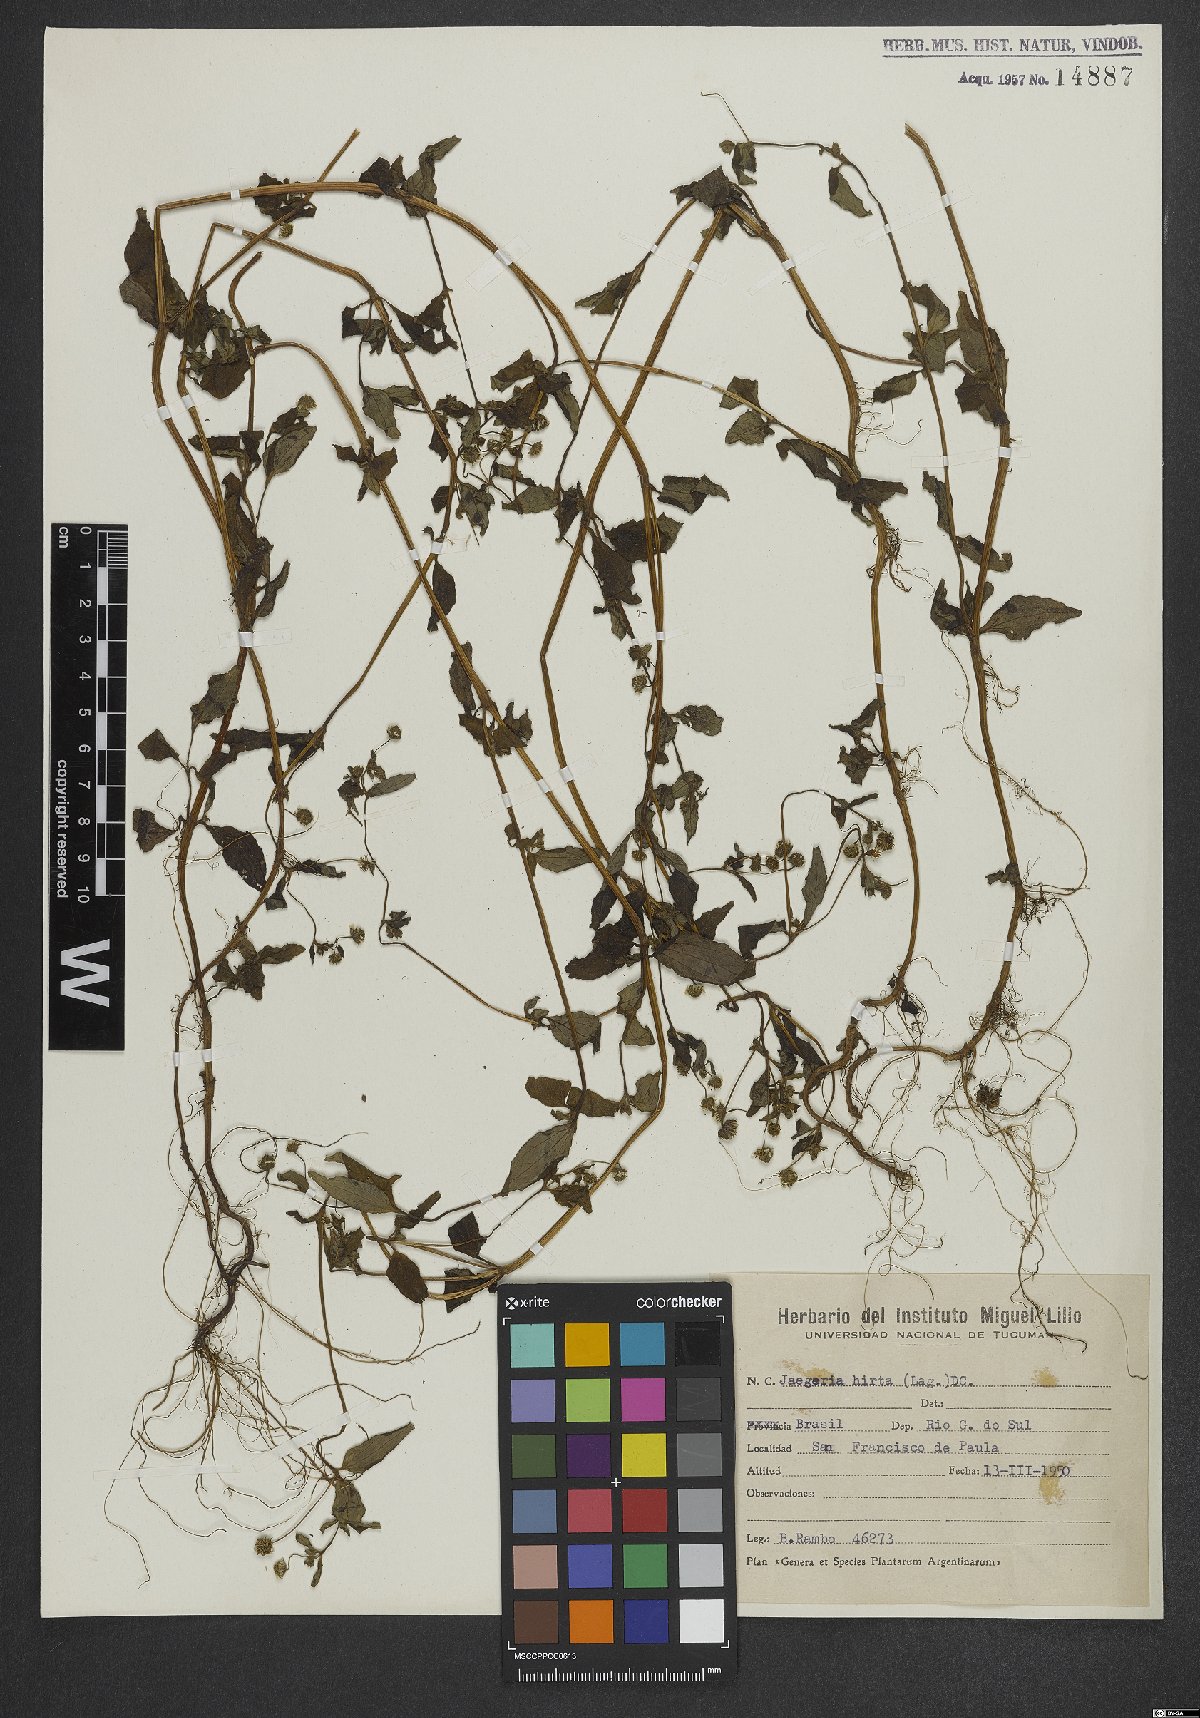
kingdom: Plantae
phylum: Tracheophyta
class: Magnoliopsida
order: Asterales
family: Asteraceae
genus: Jaegeria
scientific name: Jaegeria hirta
